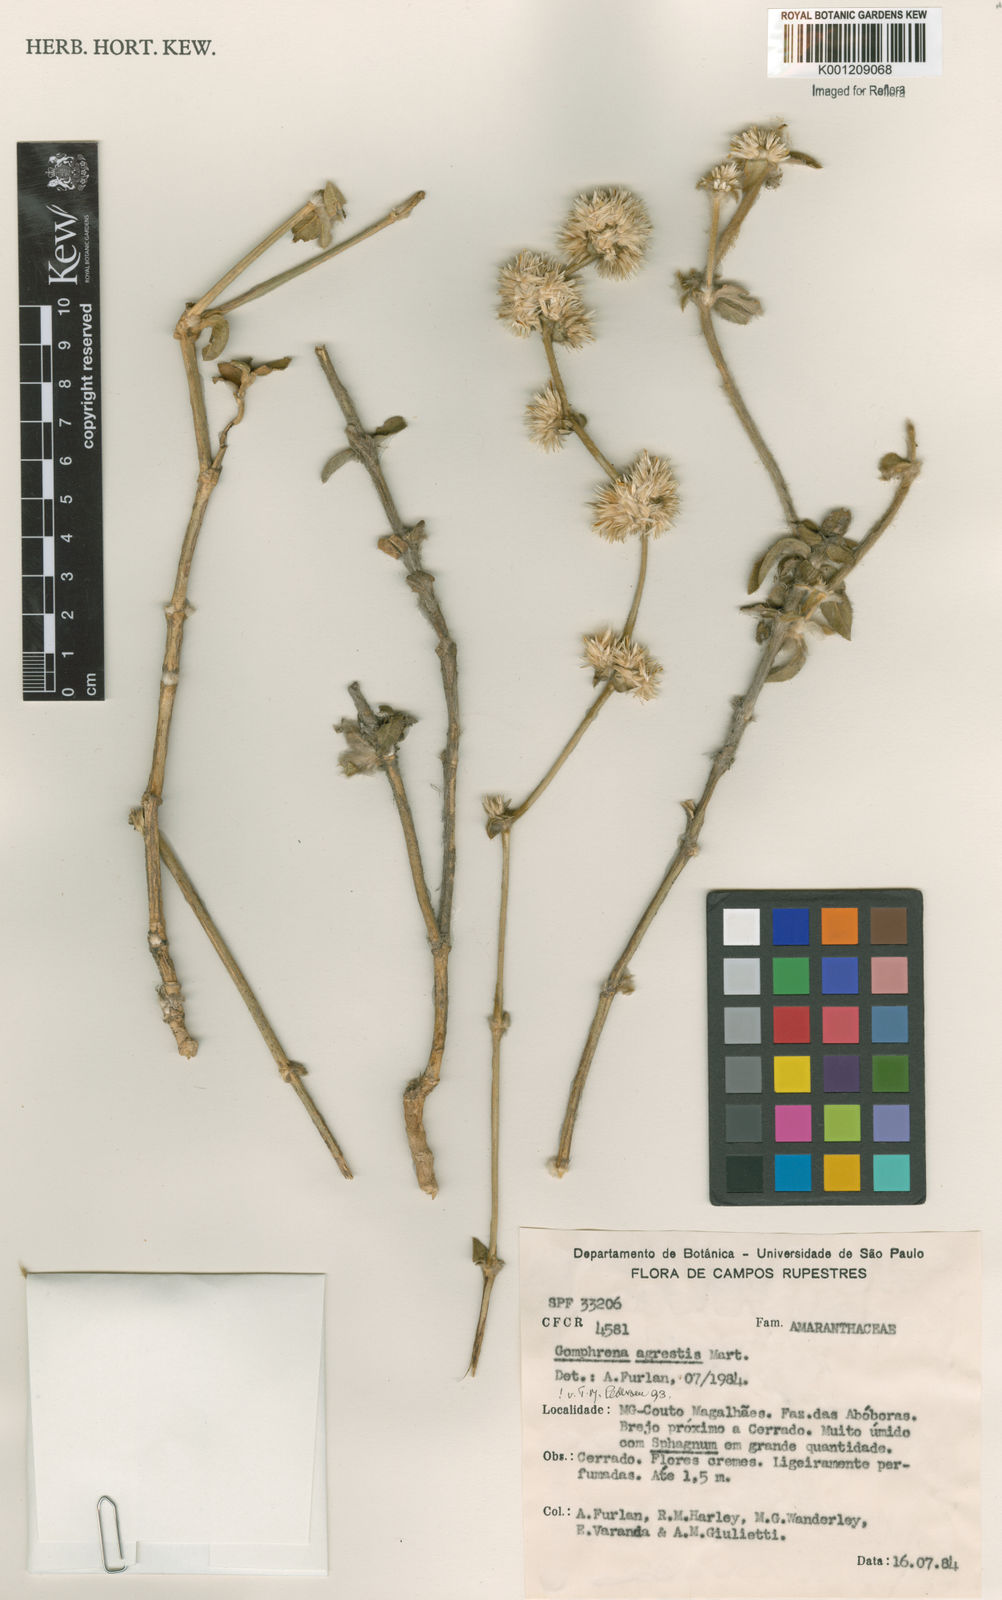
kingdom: Plantae
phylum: Tracheophyta
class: Magnoliopsida
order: Caryophyllales
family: Amaranthaceae
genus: Gomphrena
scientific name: Gomphrena agrestis
